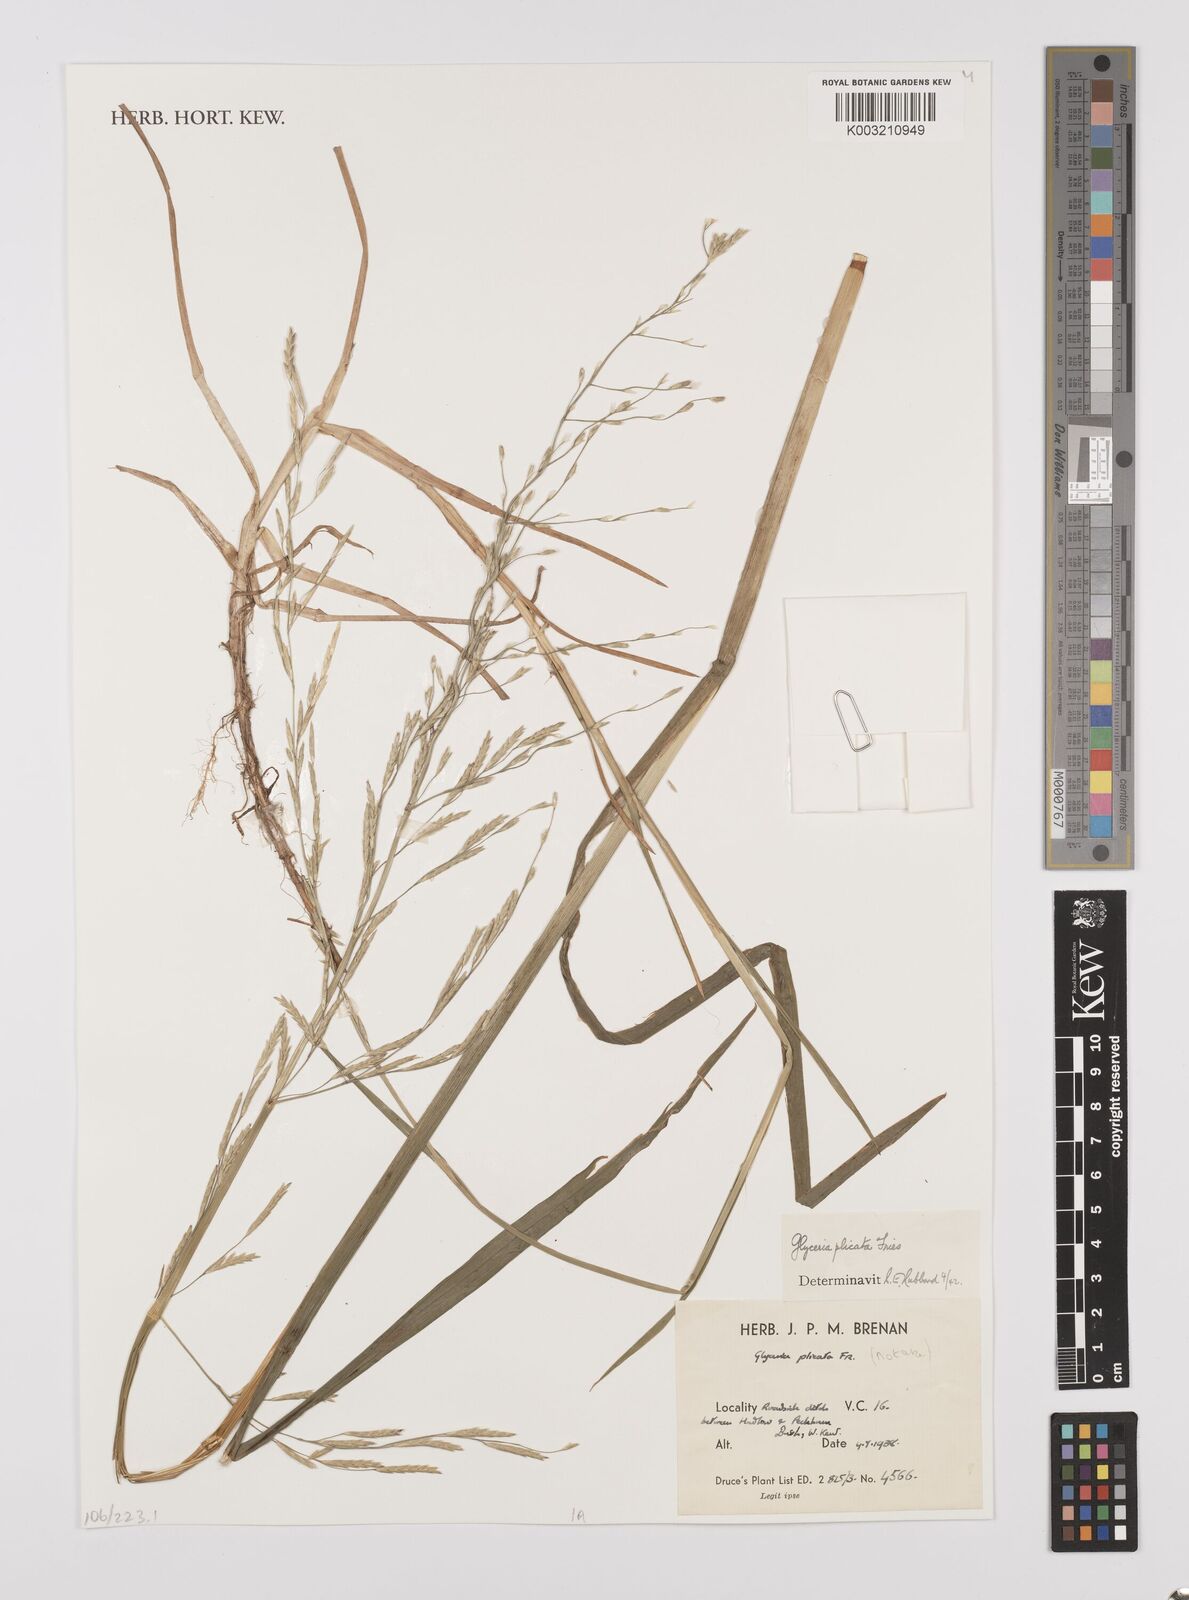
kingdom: Plantae
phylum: Tracheophyta
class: Liliopsida
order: Poales
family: Poaceae
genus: Glyceria
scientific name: Glyceria notata
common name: Plicate sweet-grass
